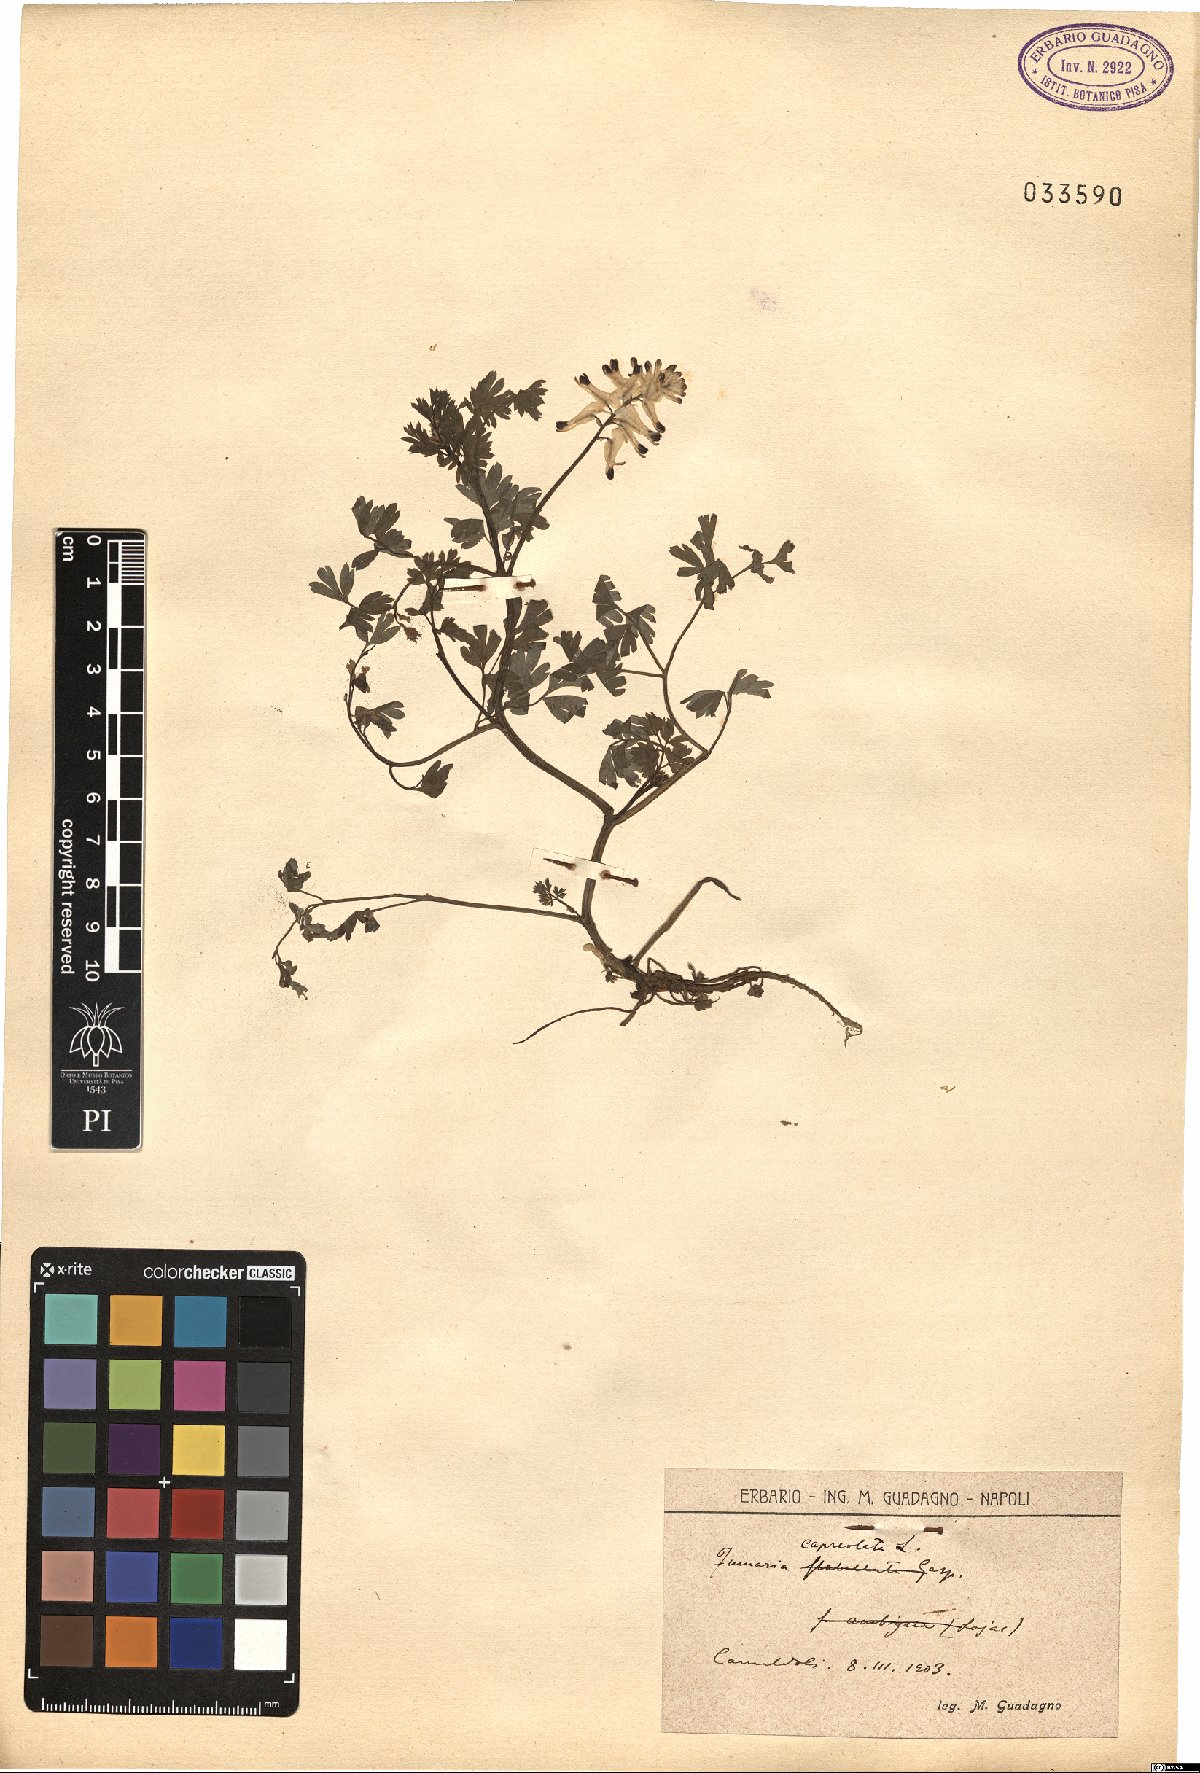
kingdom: Plantae
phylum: Tracheophyta
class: Magnoliopsida
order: Ranunculales
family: Papaveraceae
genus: Fumaria
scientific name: Fumaria capreolata
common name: White ramping-fumitory
